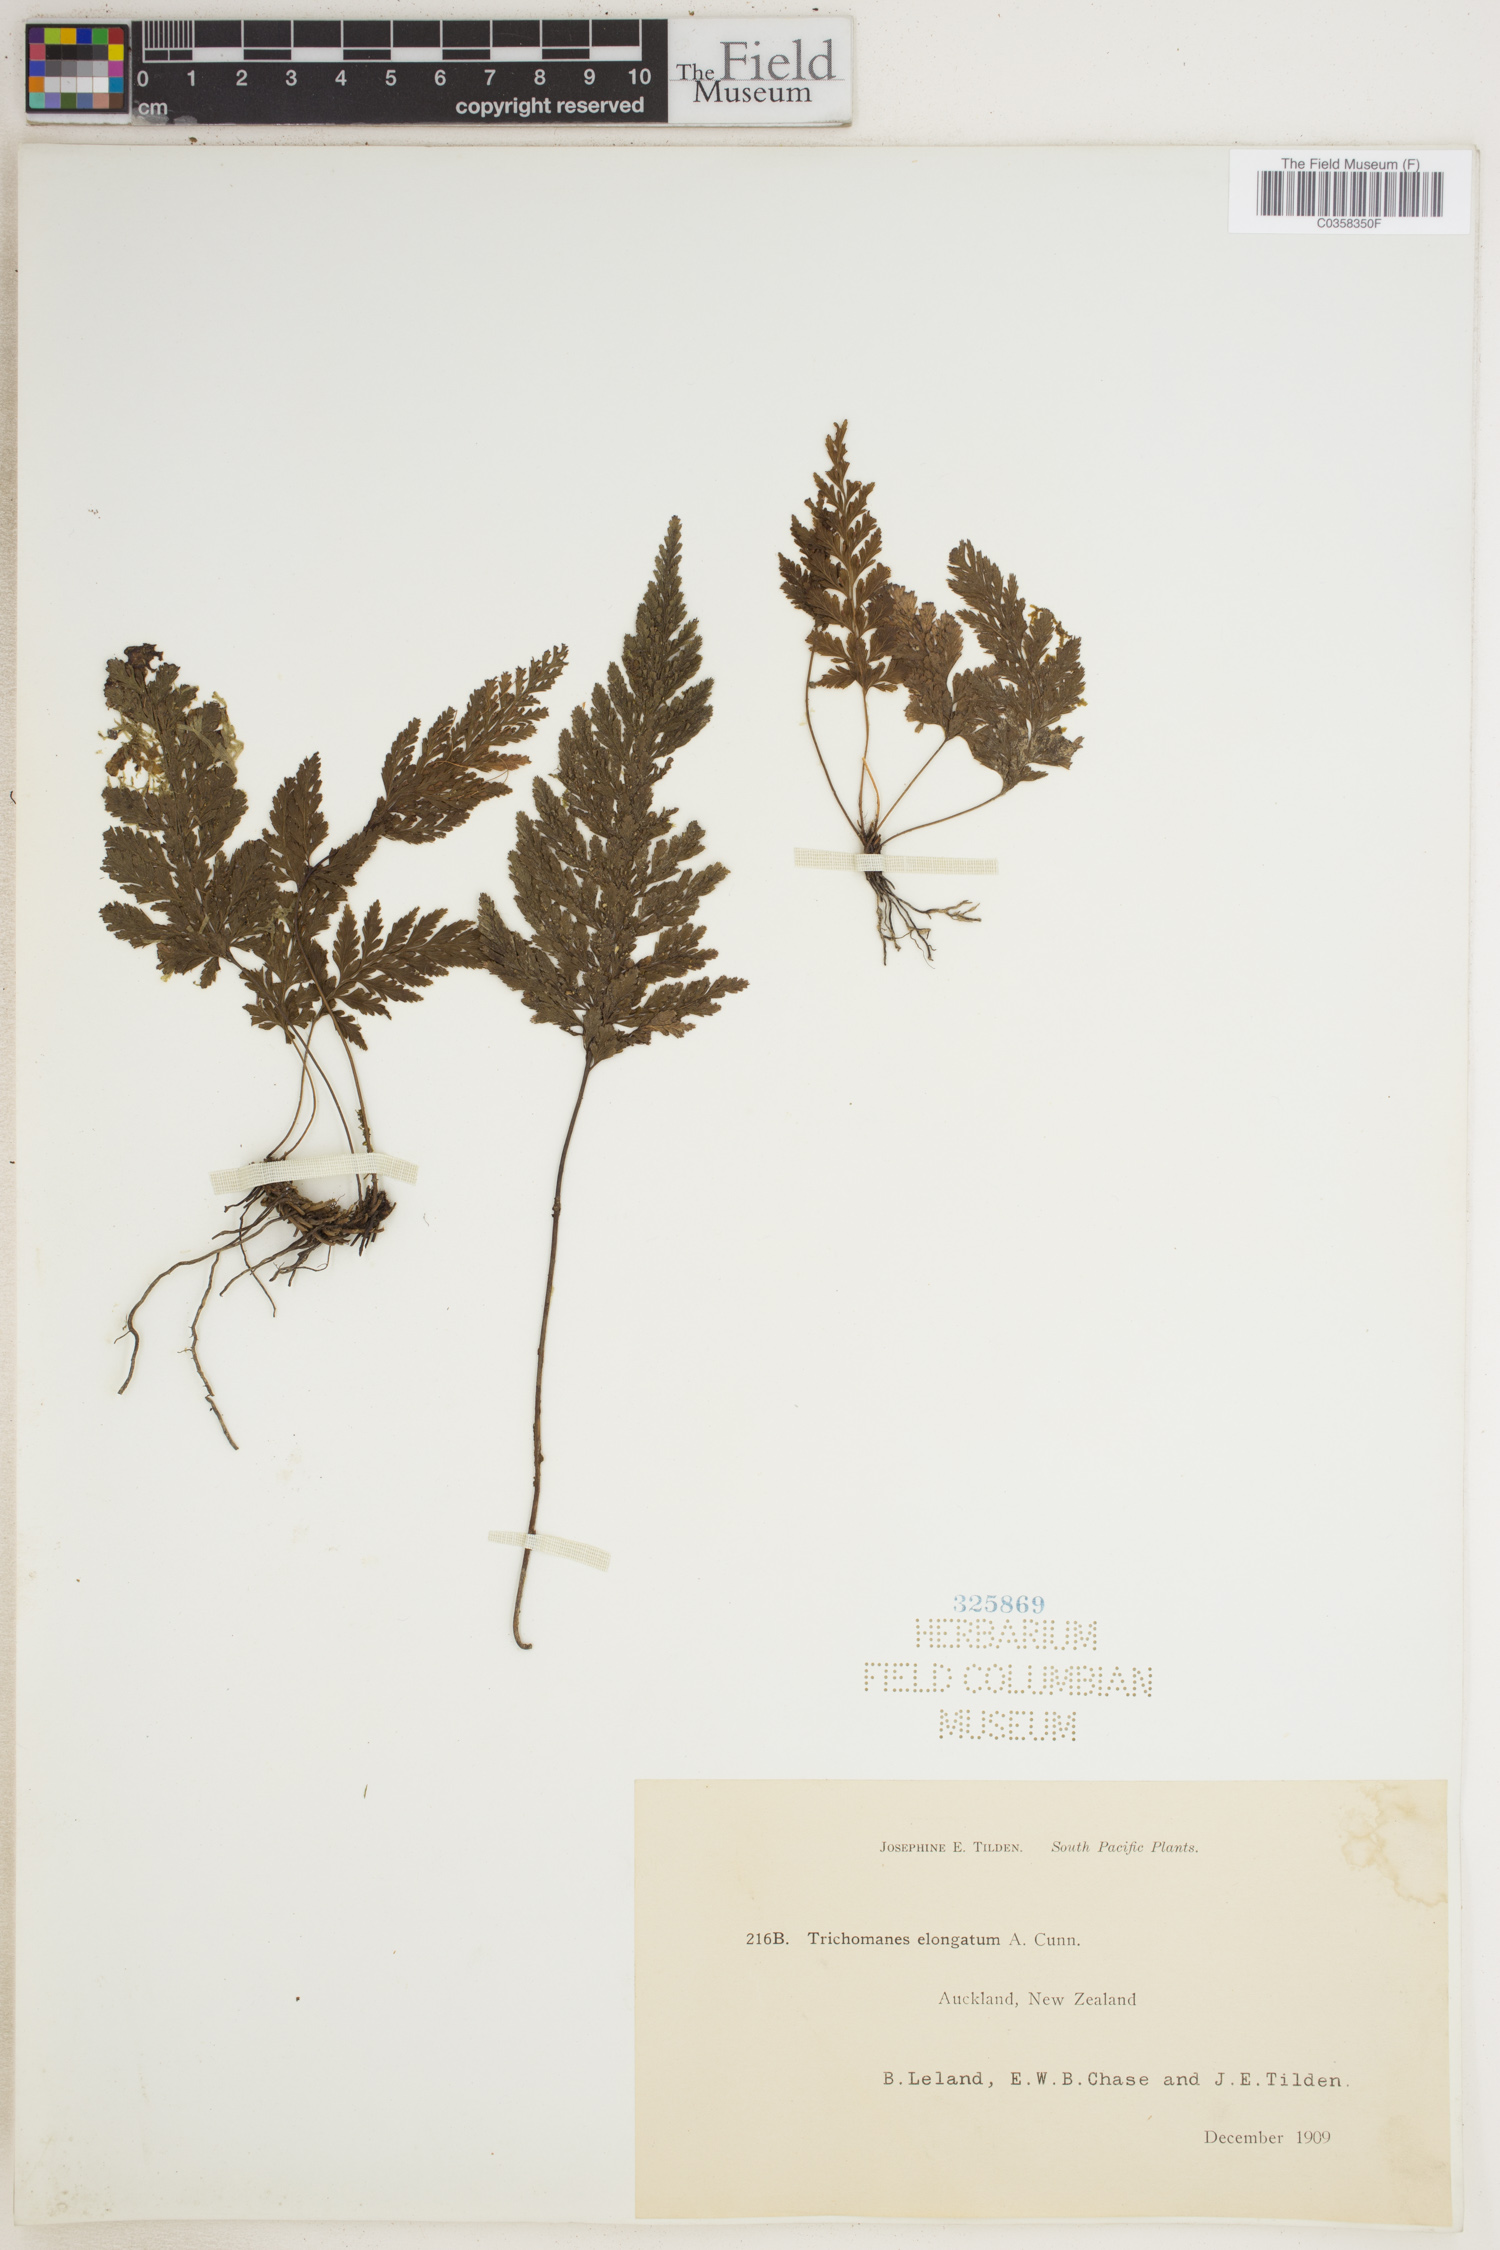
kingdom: Plantae
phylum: Tracheophyta
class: Polypodiopsida
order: Hymenophyllales
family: Hymenophyllaceae
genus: Abrodictyum
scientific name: Abrodictyum elongatum
